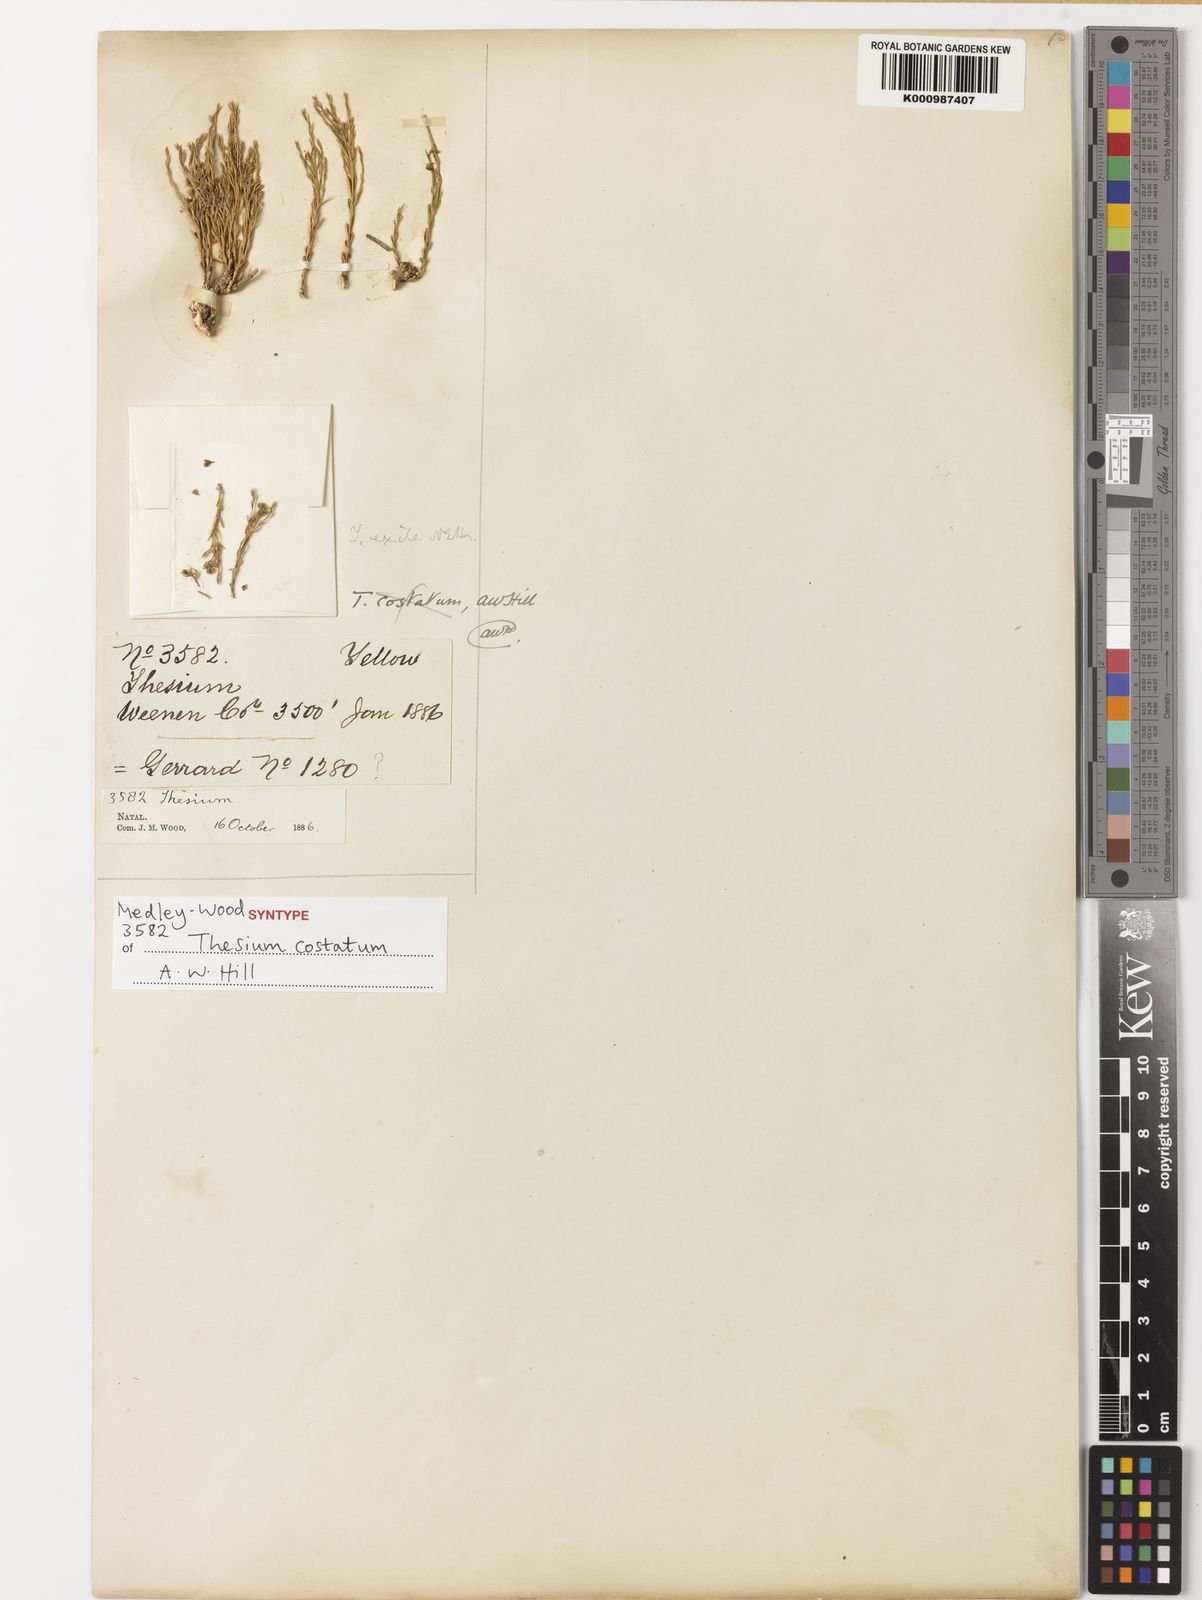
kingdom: Plantae
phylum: Tracheophyta
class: Magnoliopsida
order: Santalales
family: Thesiaceae
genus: Thesium
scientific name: Thesium costatum
